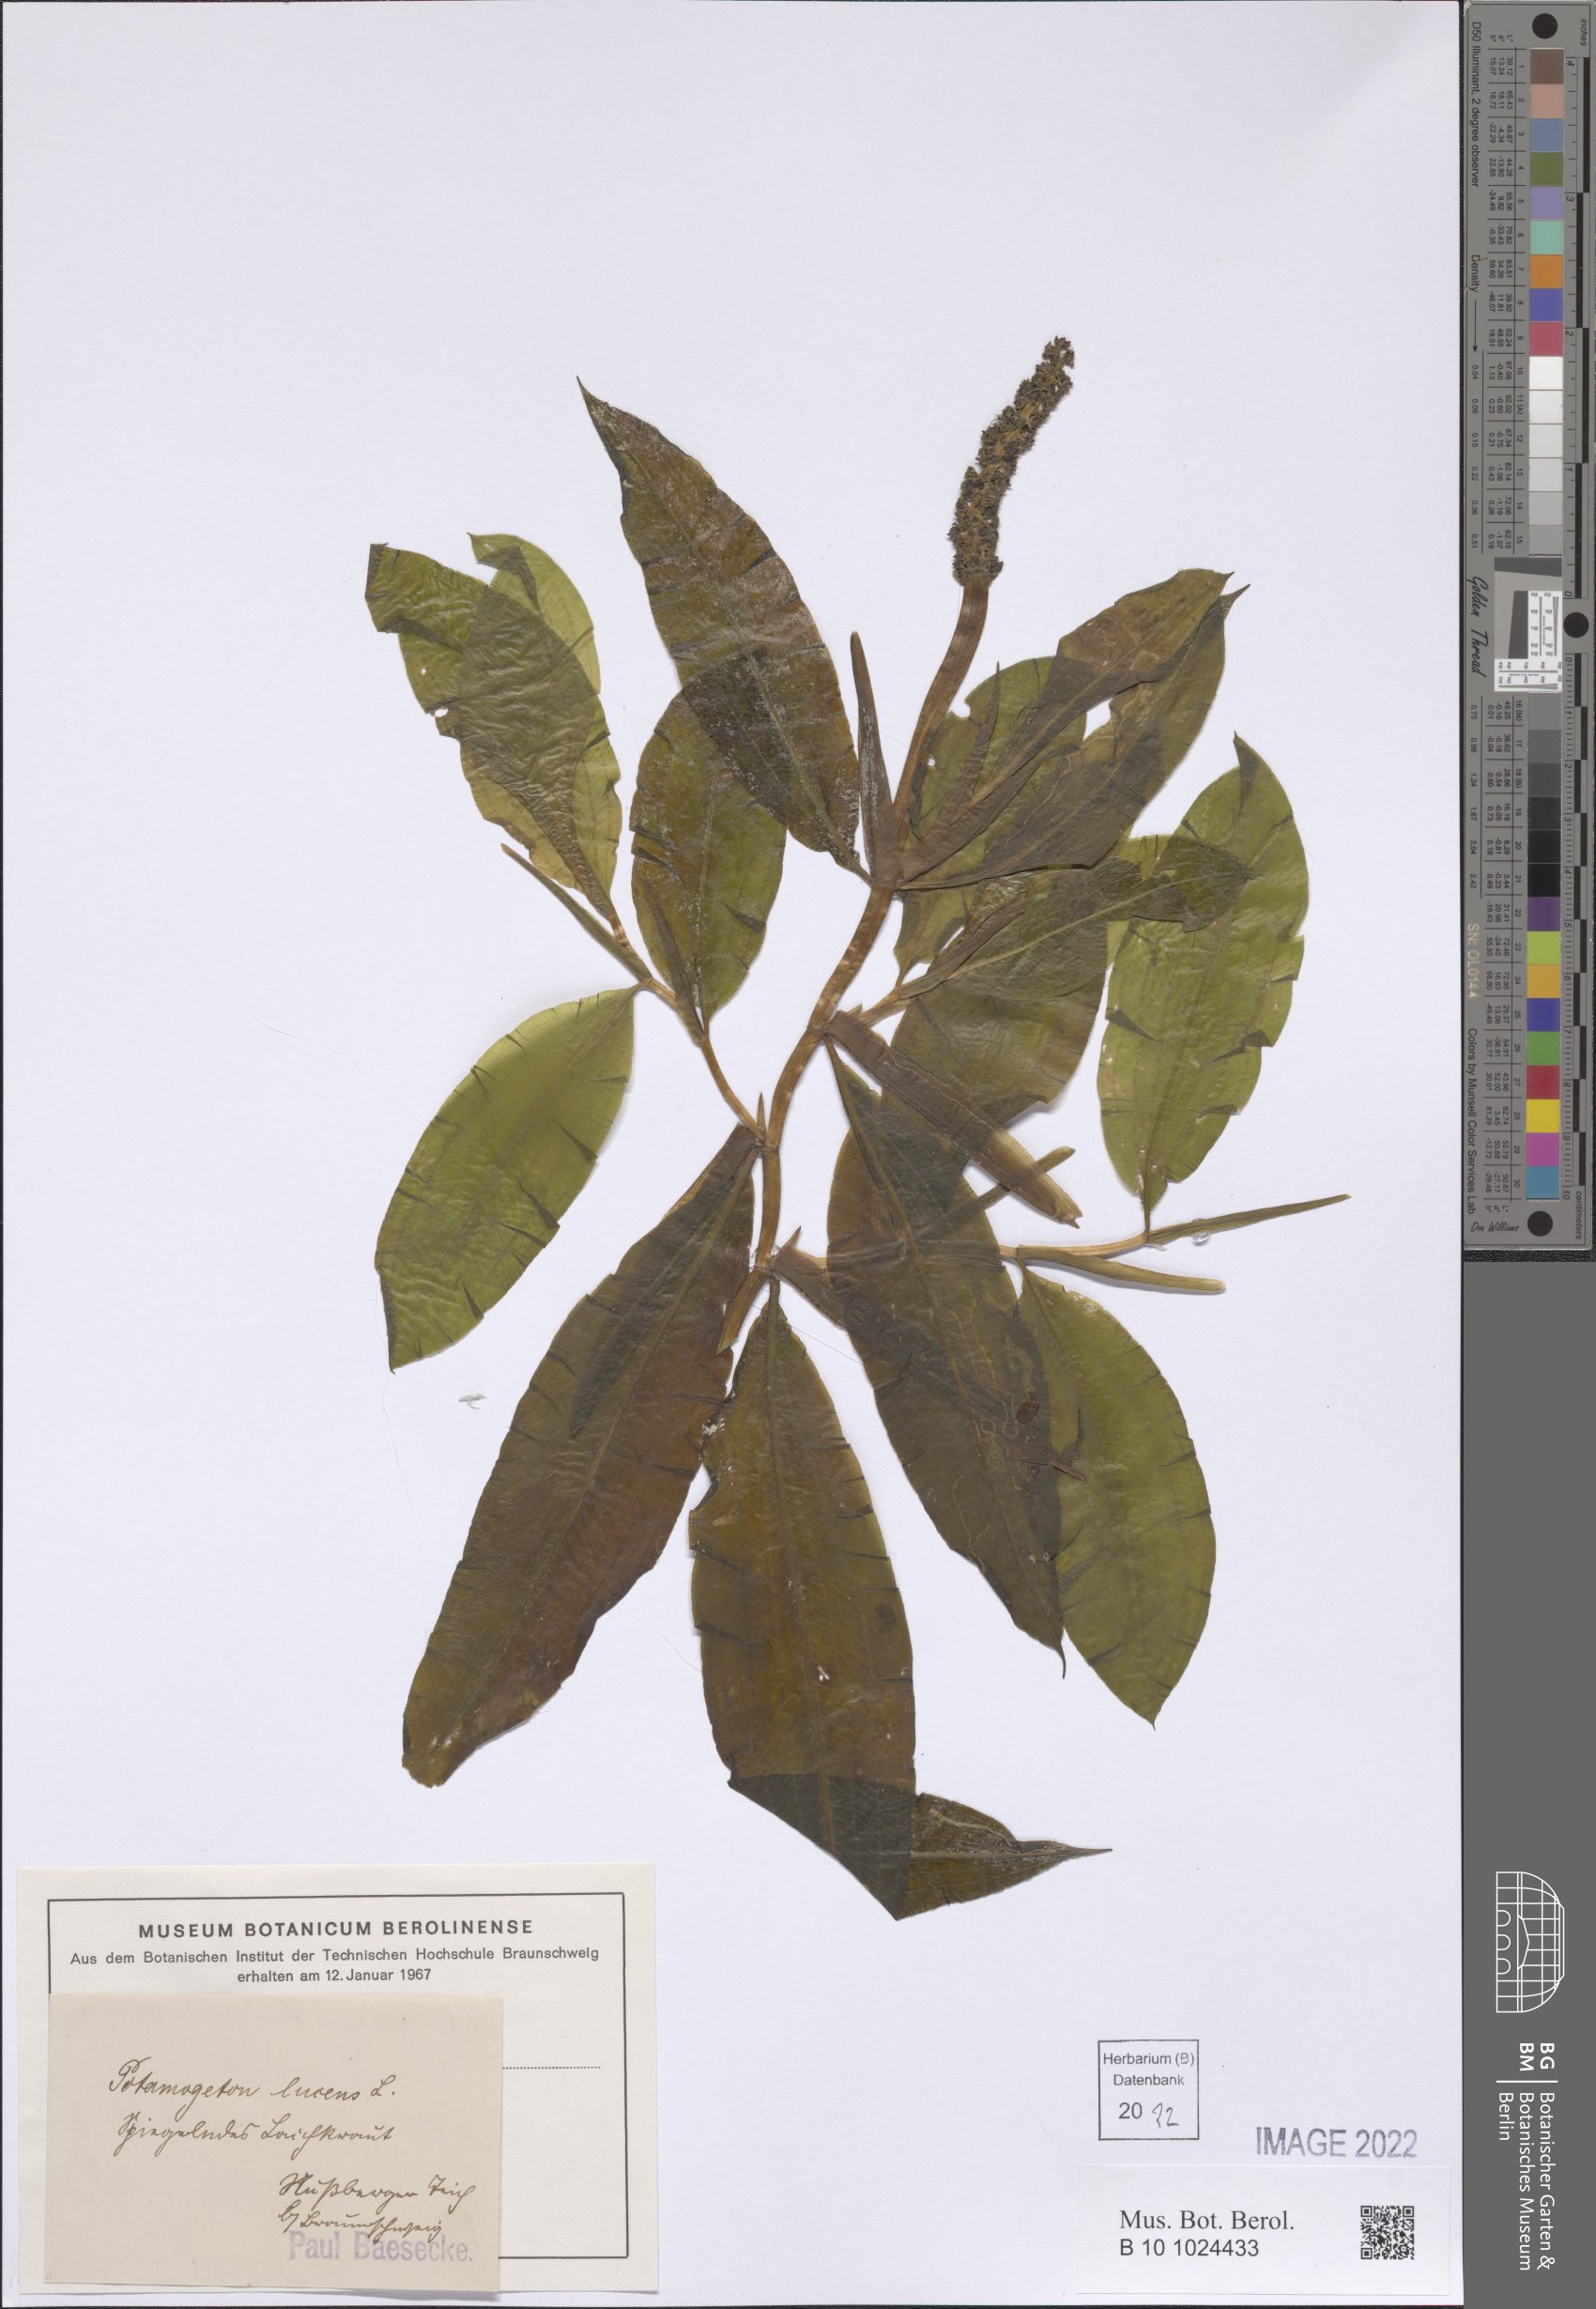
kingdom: Plantae
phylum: Tracheophyta
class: Liliopsida
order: Alismatales
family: Potamogetonaceae
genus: Potamogeton
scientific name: Potamogeton lucens
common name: Shining pondweed
